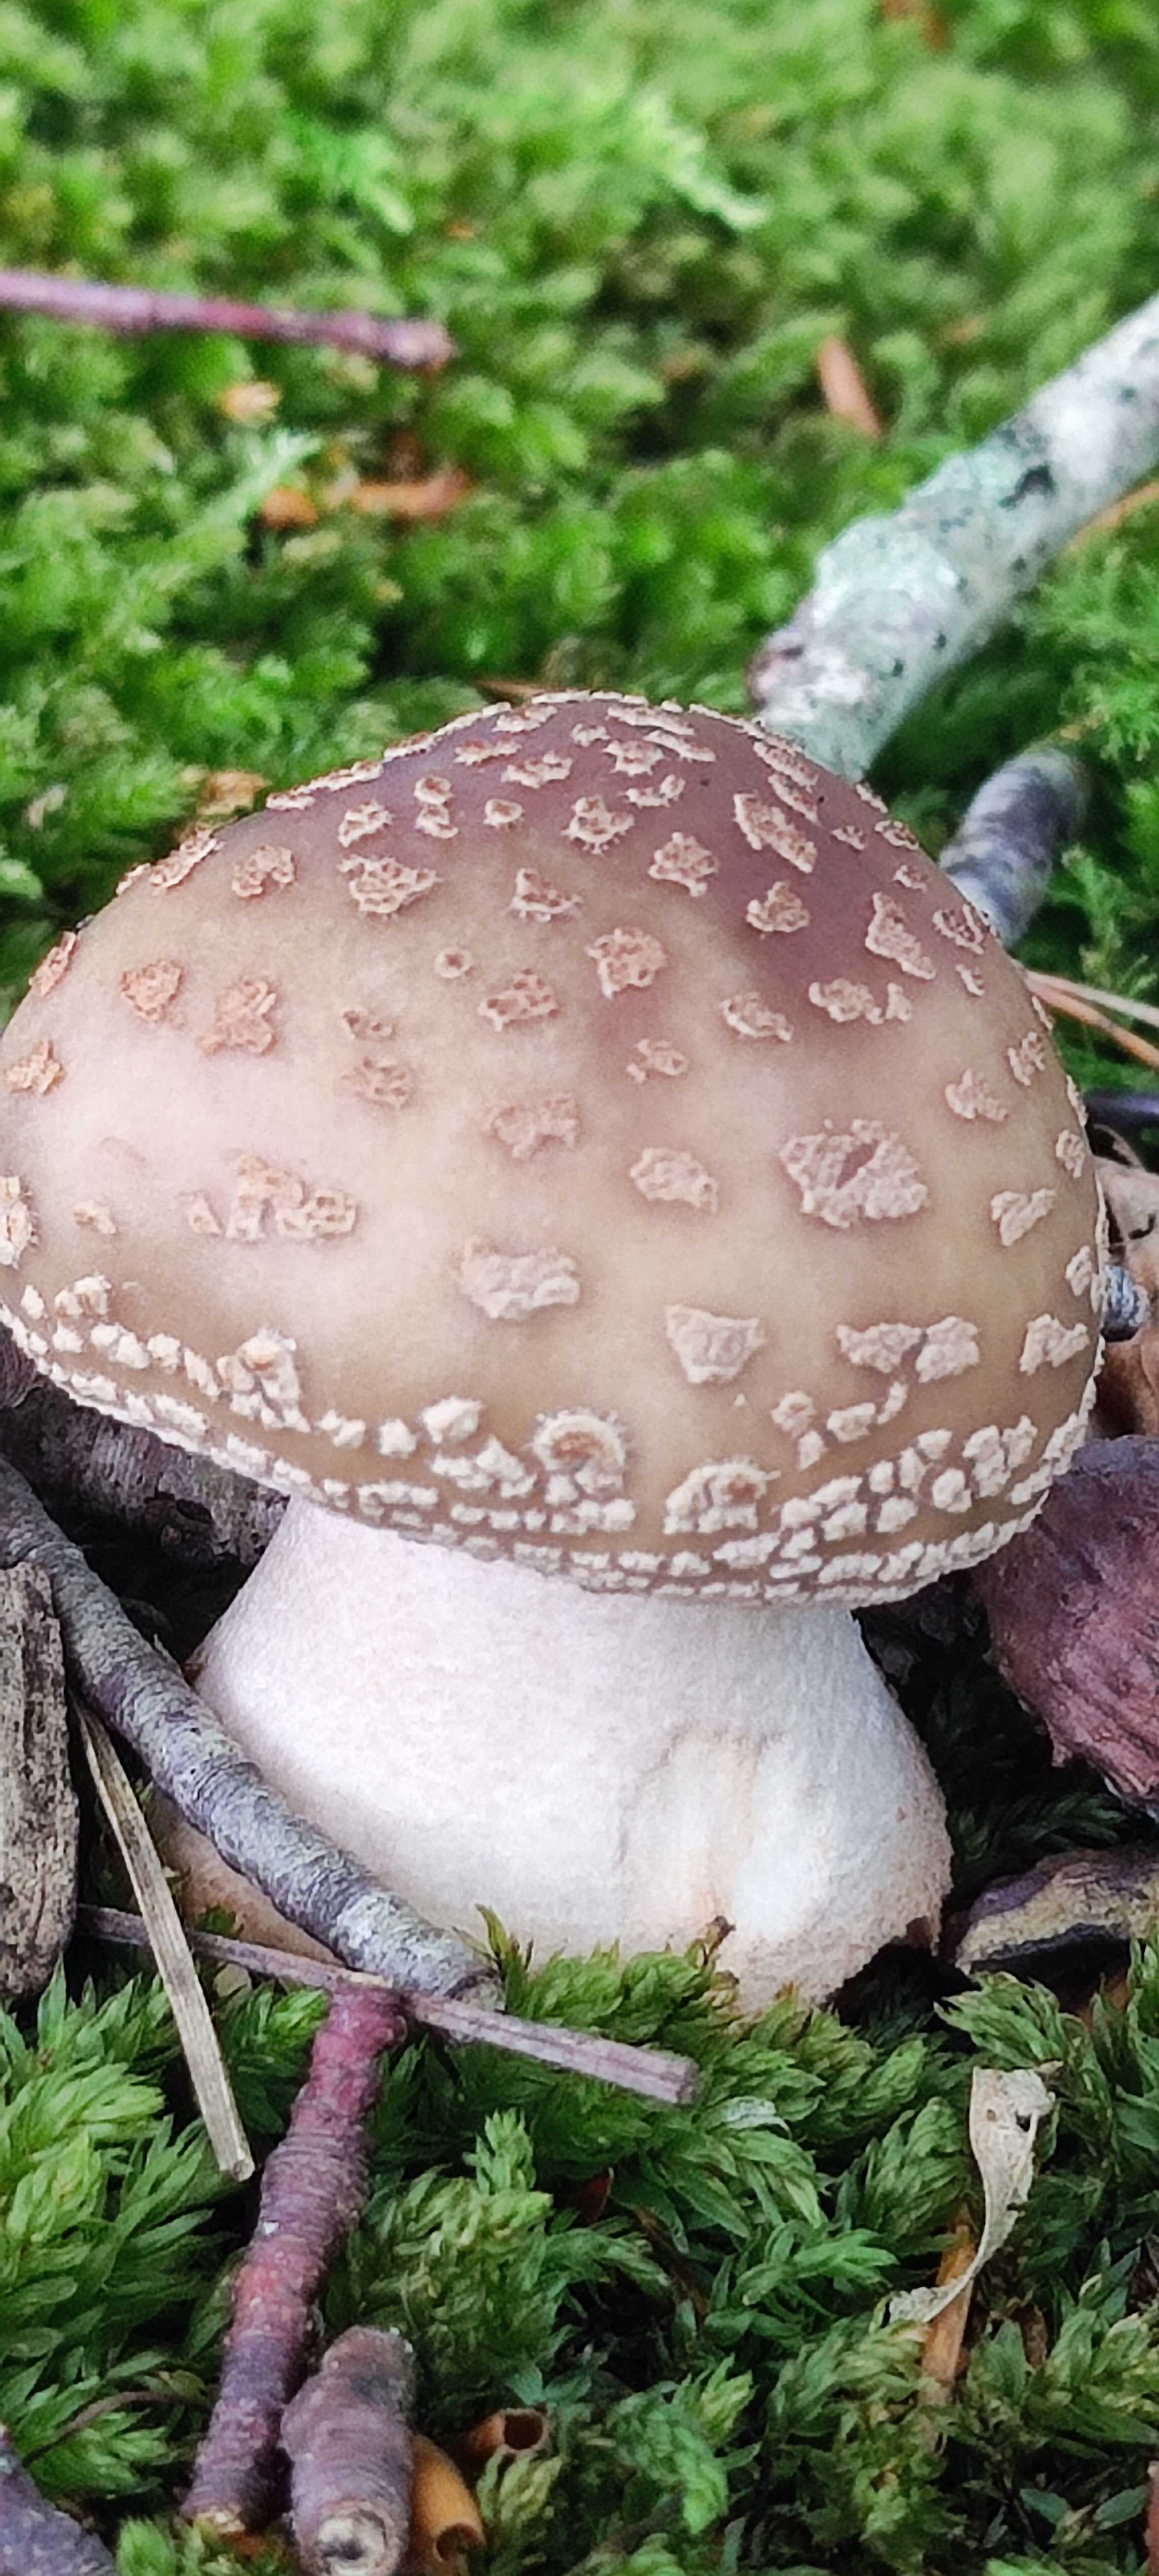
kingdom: Fungi
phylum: Basidiomycota
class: Agaricomycetes
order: Agaricales
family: Amanitaceae
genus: Amanita
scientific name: Amanita rubescens
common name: rødmende fluesvamp
